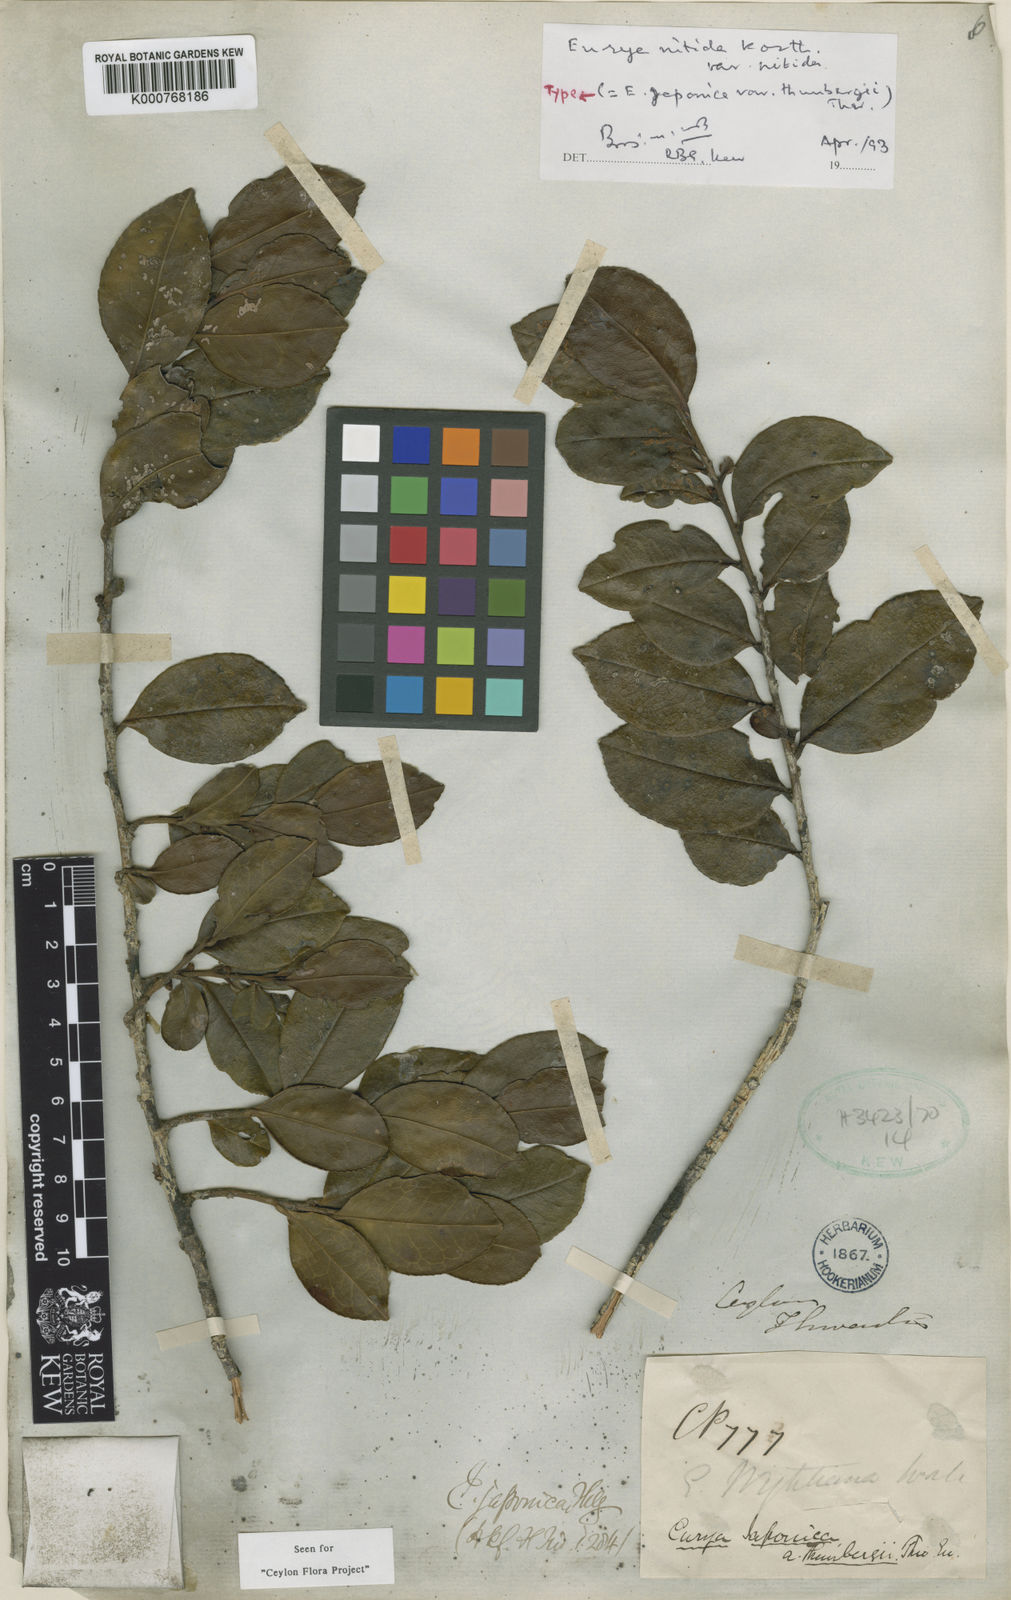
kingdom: Plantae
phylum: Tracheophyta
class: Magnoliopsida
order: Ericales
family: Pentaphylacaceae
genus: Eurya
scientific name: Eurya japonica
